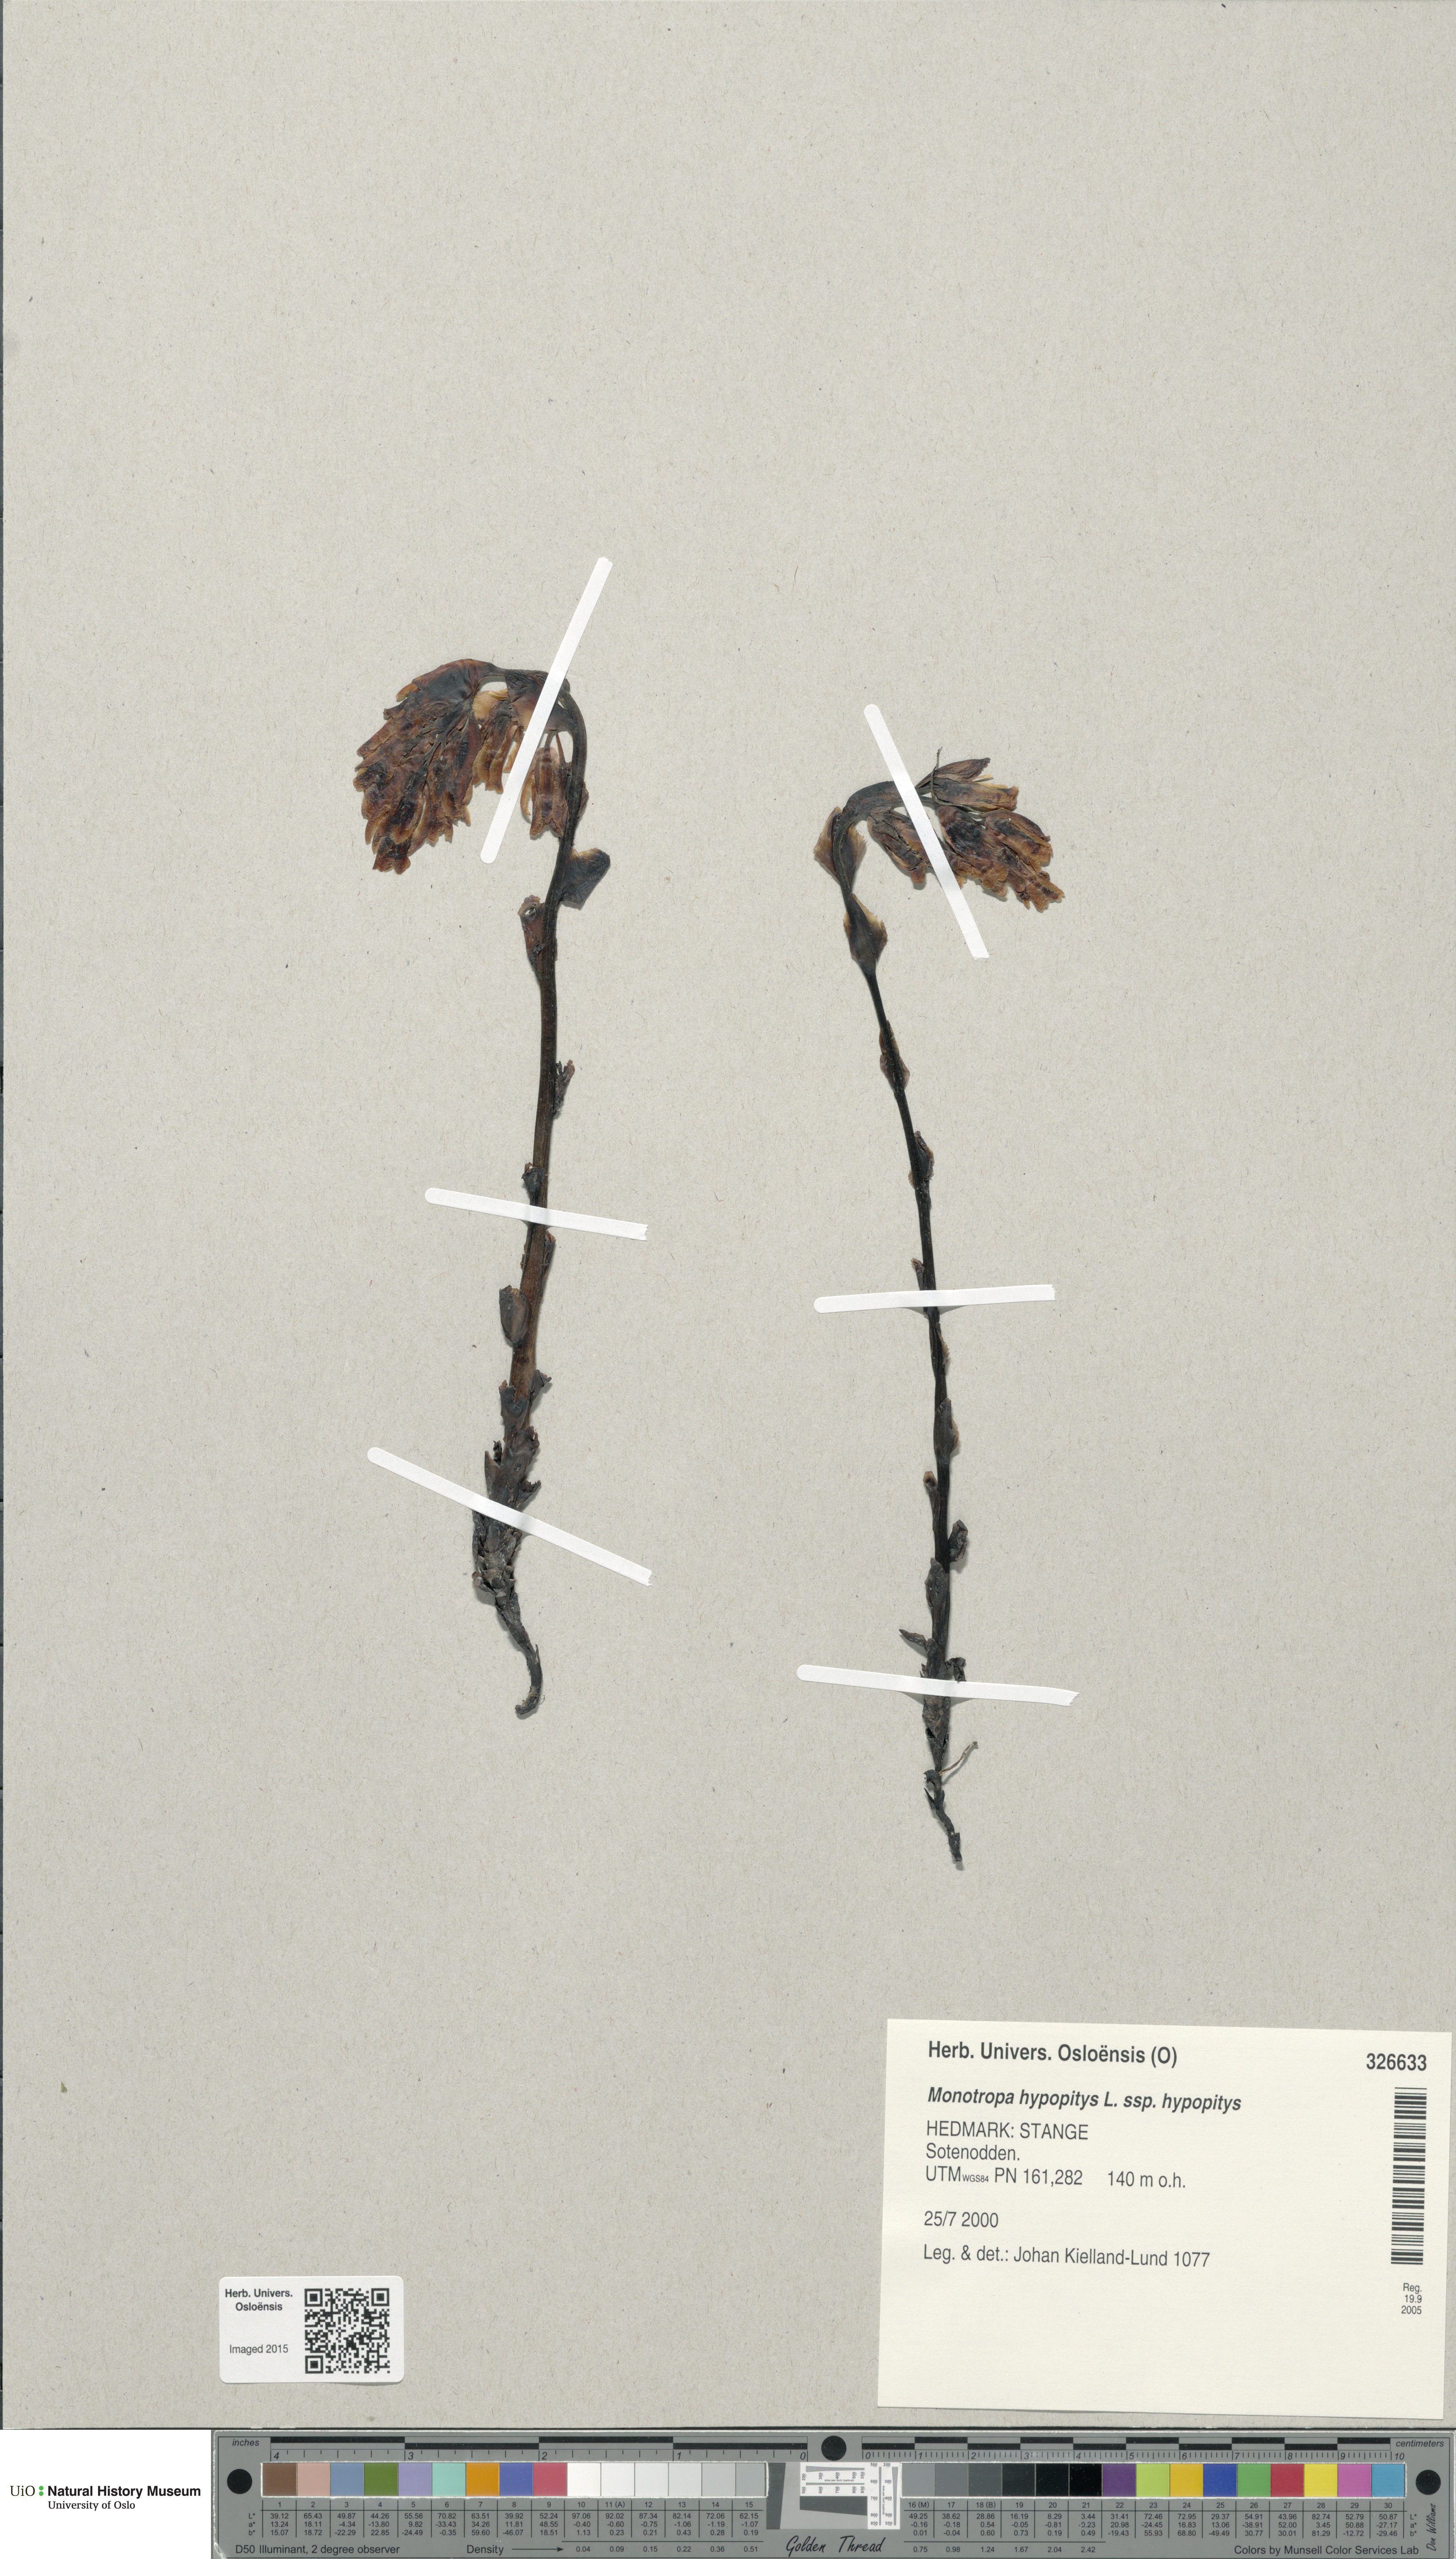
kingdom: Plantae
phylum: Tracheophyta
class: Magnoliopsida
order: Ericales
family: Ericaceae
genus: Hypopitys
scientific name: Hypopitys monotropa
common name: Yellow bird's-nest
